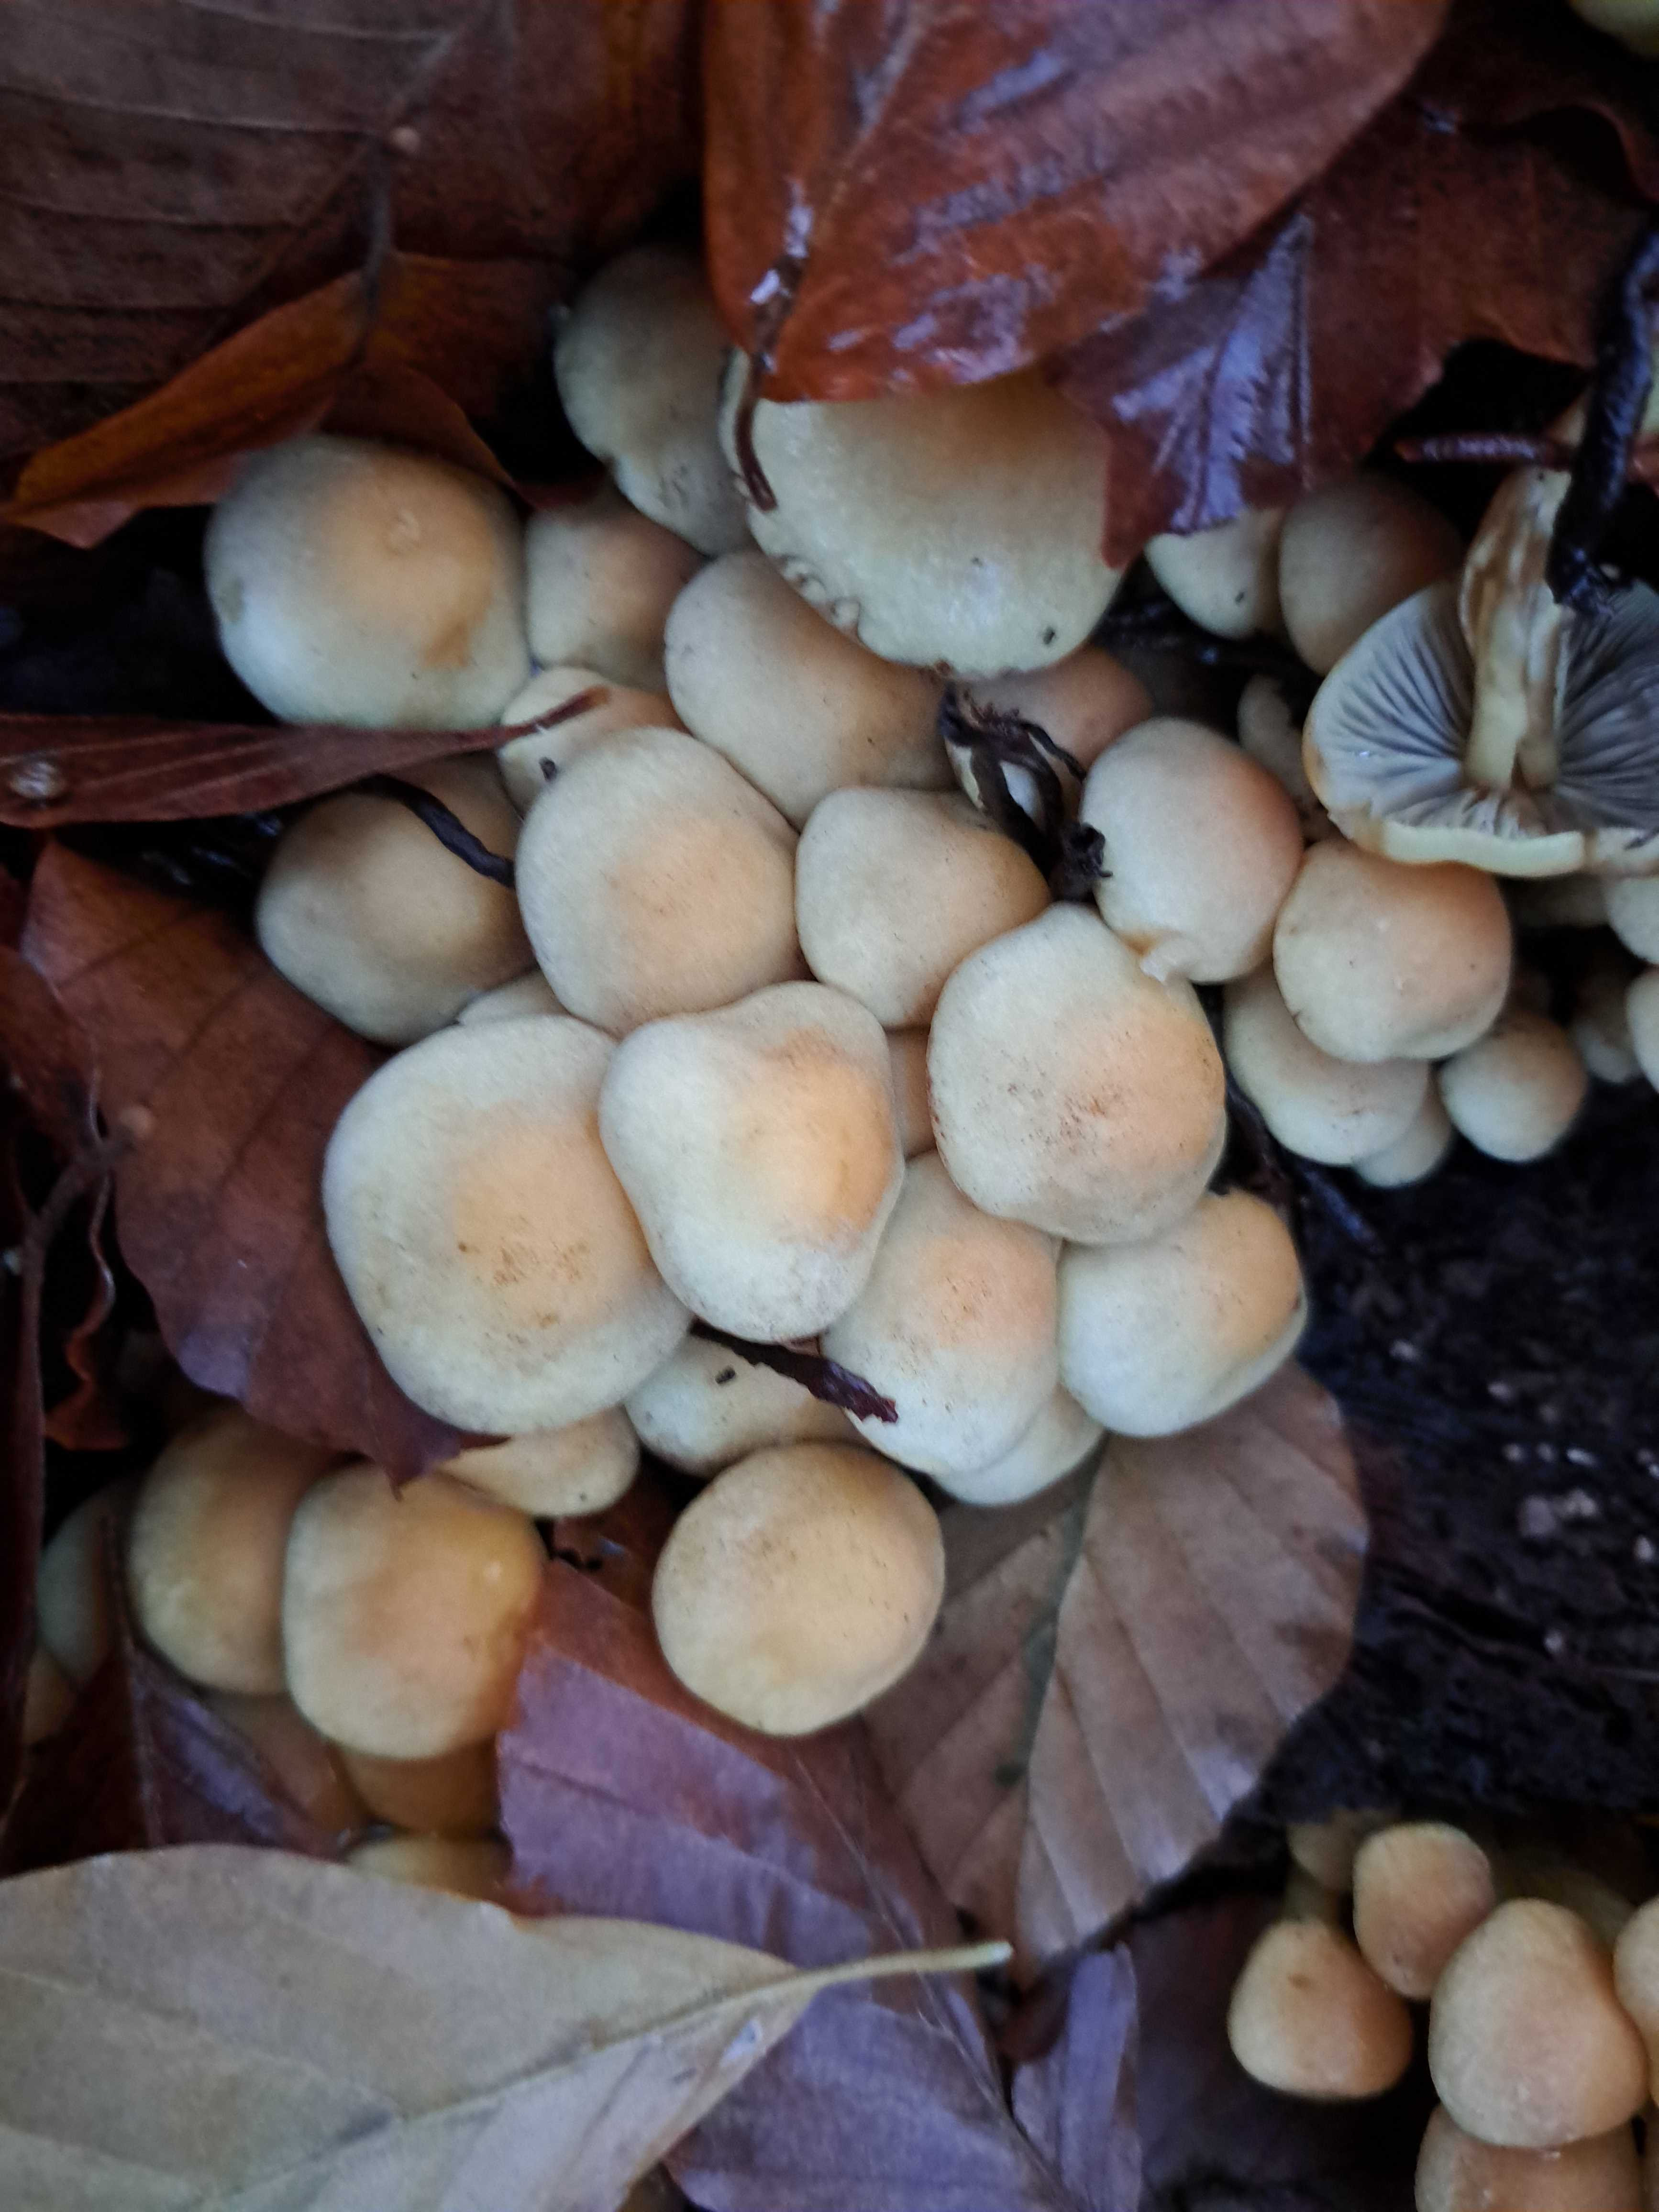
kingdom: Fungi
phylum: Basidiomycota
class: Agaricomycetes
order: Agaricales
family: Strophariaceae
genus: Hypholoma
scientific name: Hypholoma fasciculare
